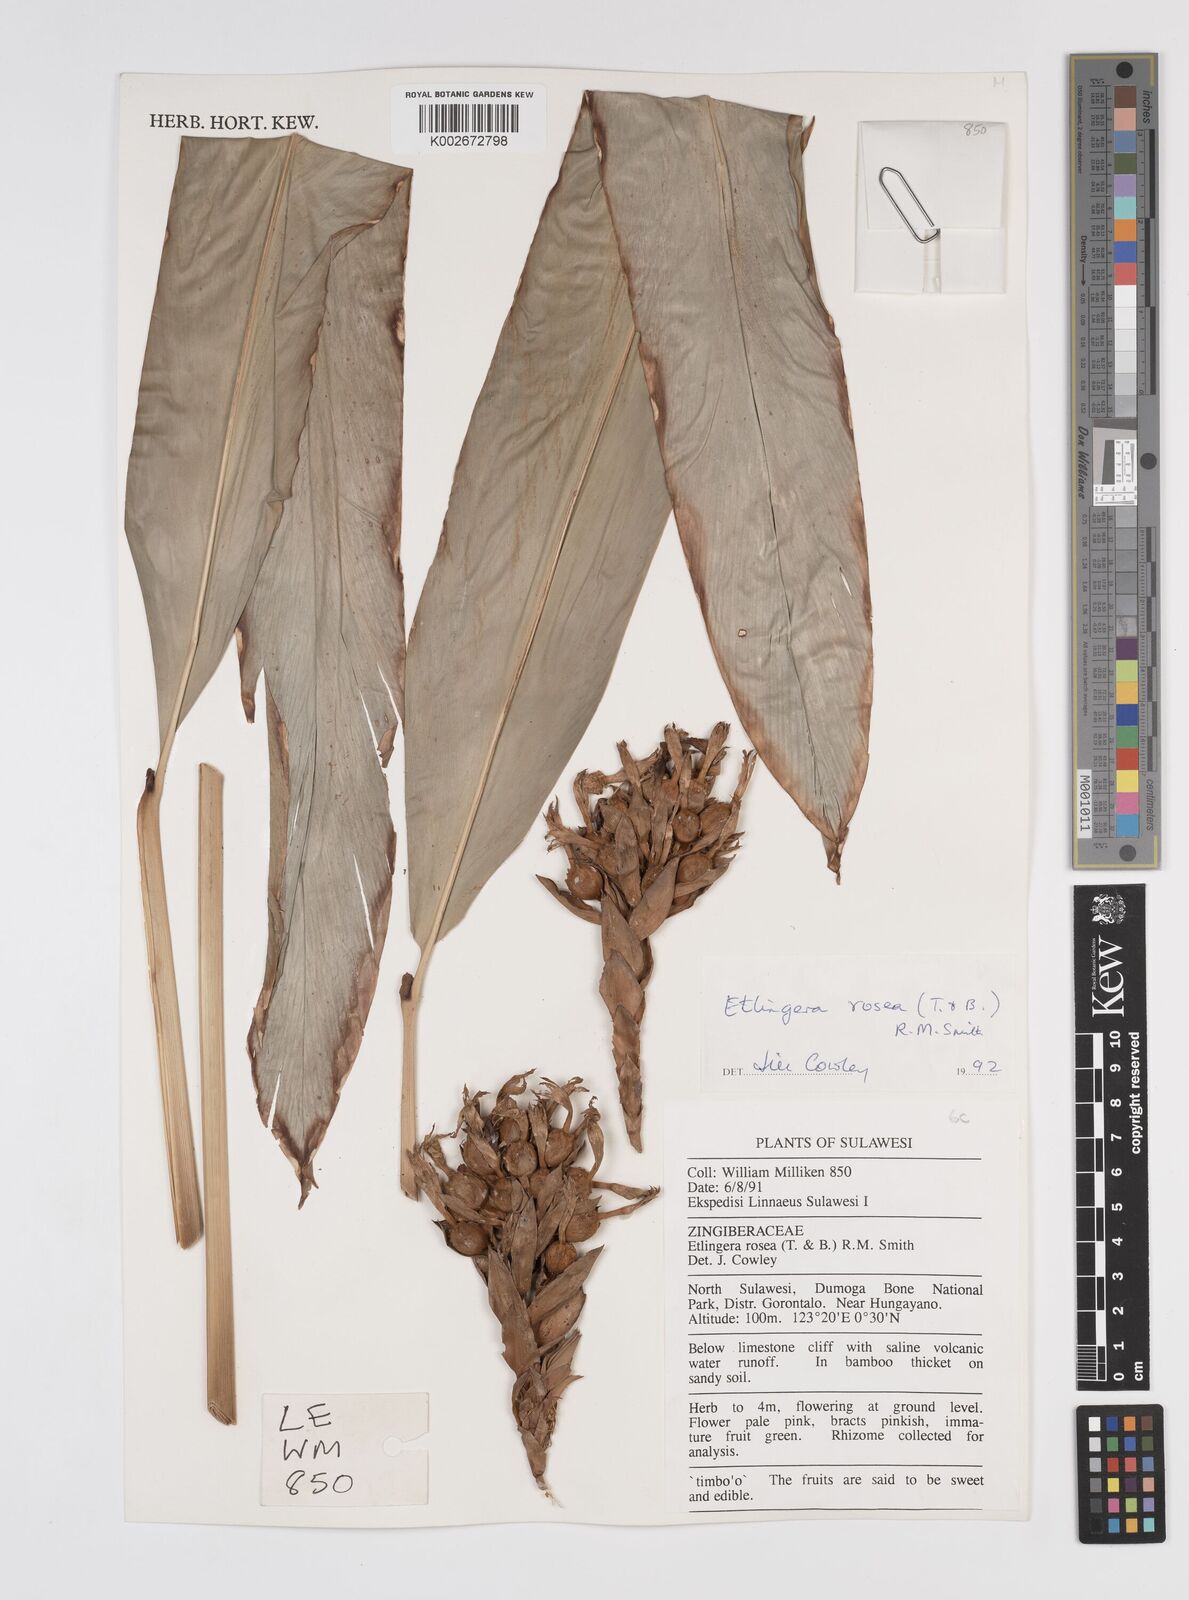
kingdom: Plantae
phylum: Tracheophyta
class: Liliopsida
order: Zingiberales
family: Zingiberaceae
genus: Etlingera
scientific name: Etlingera alba
